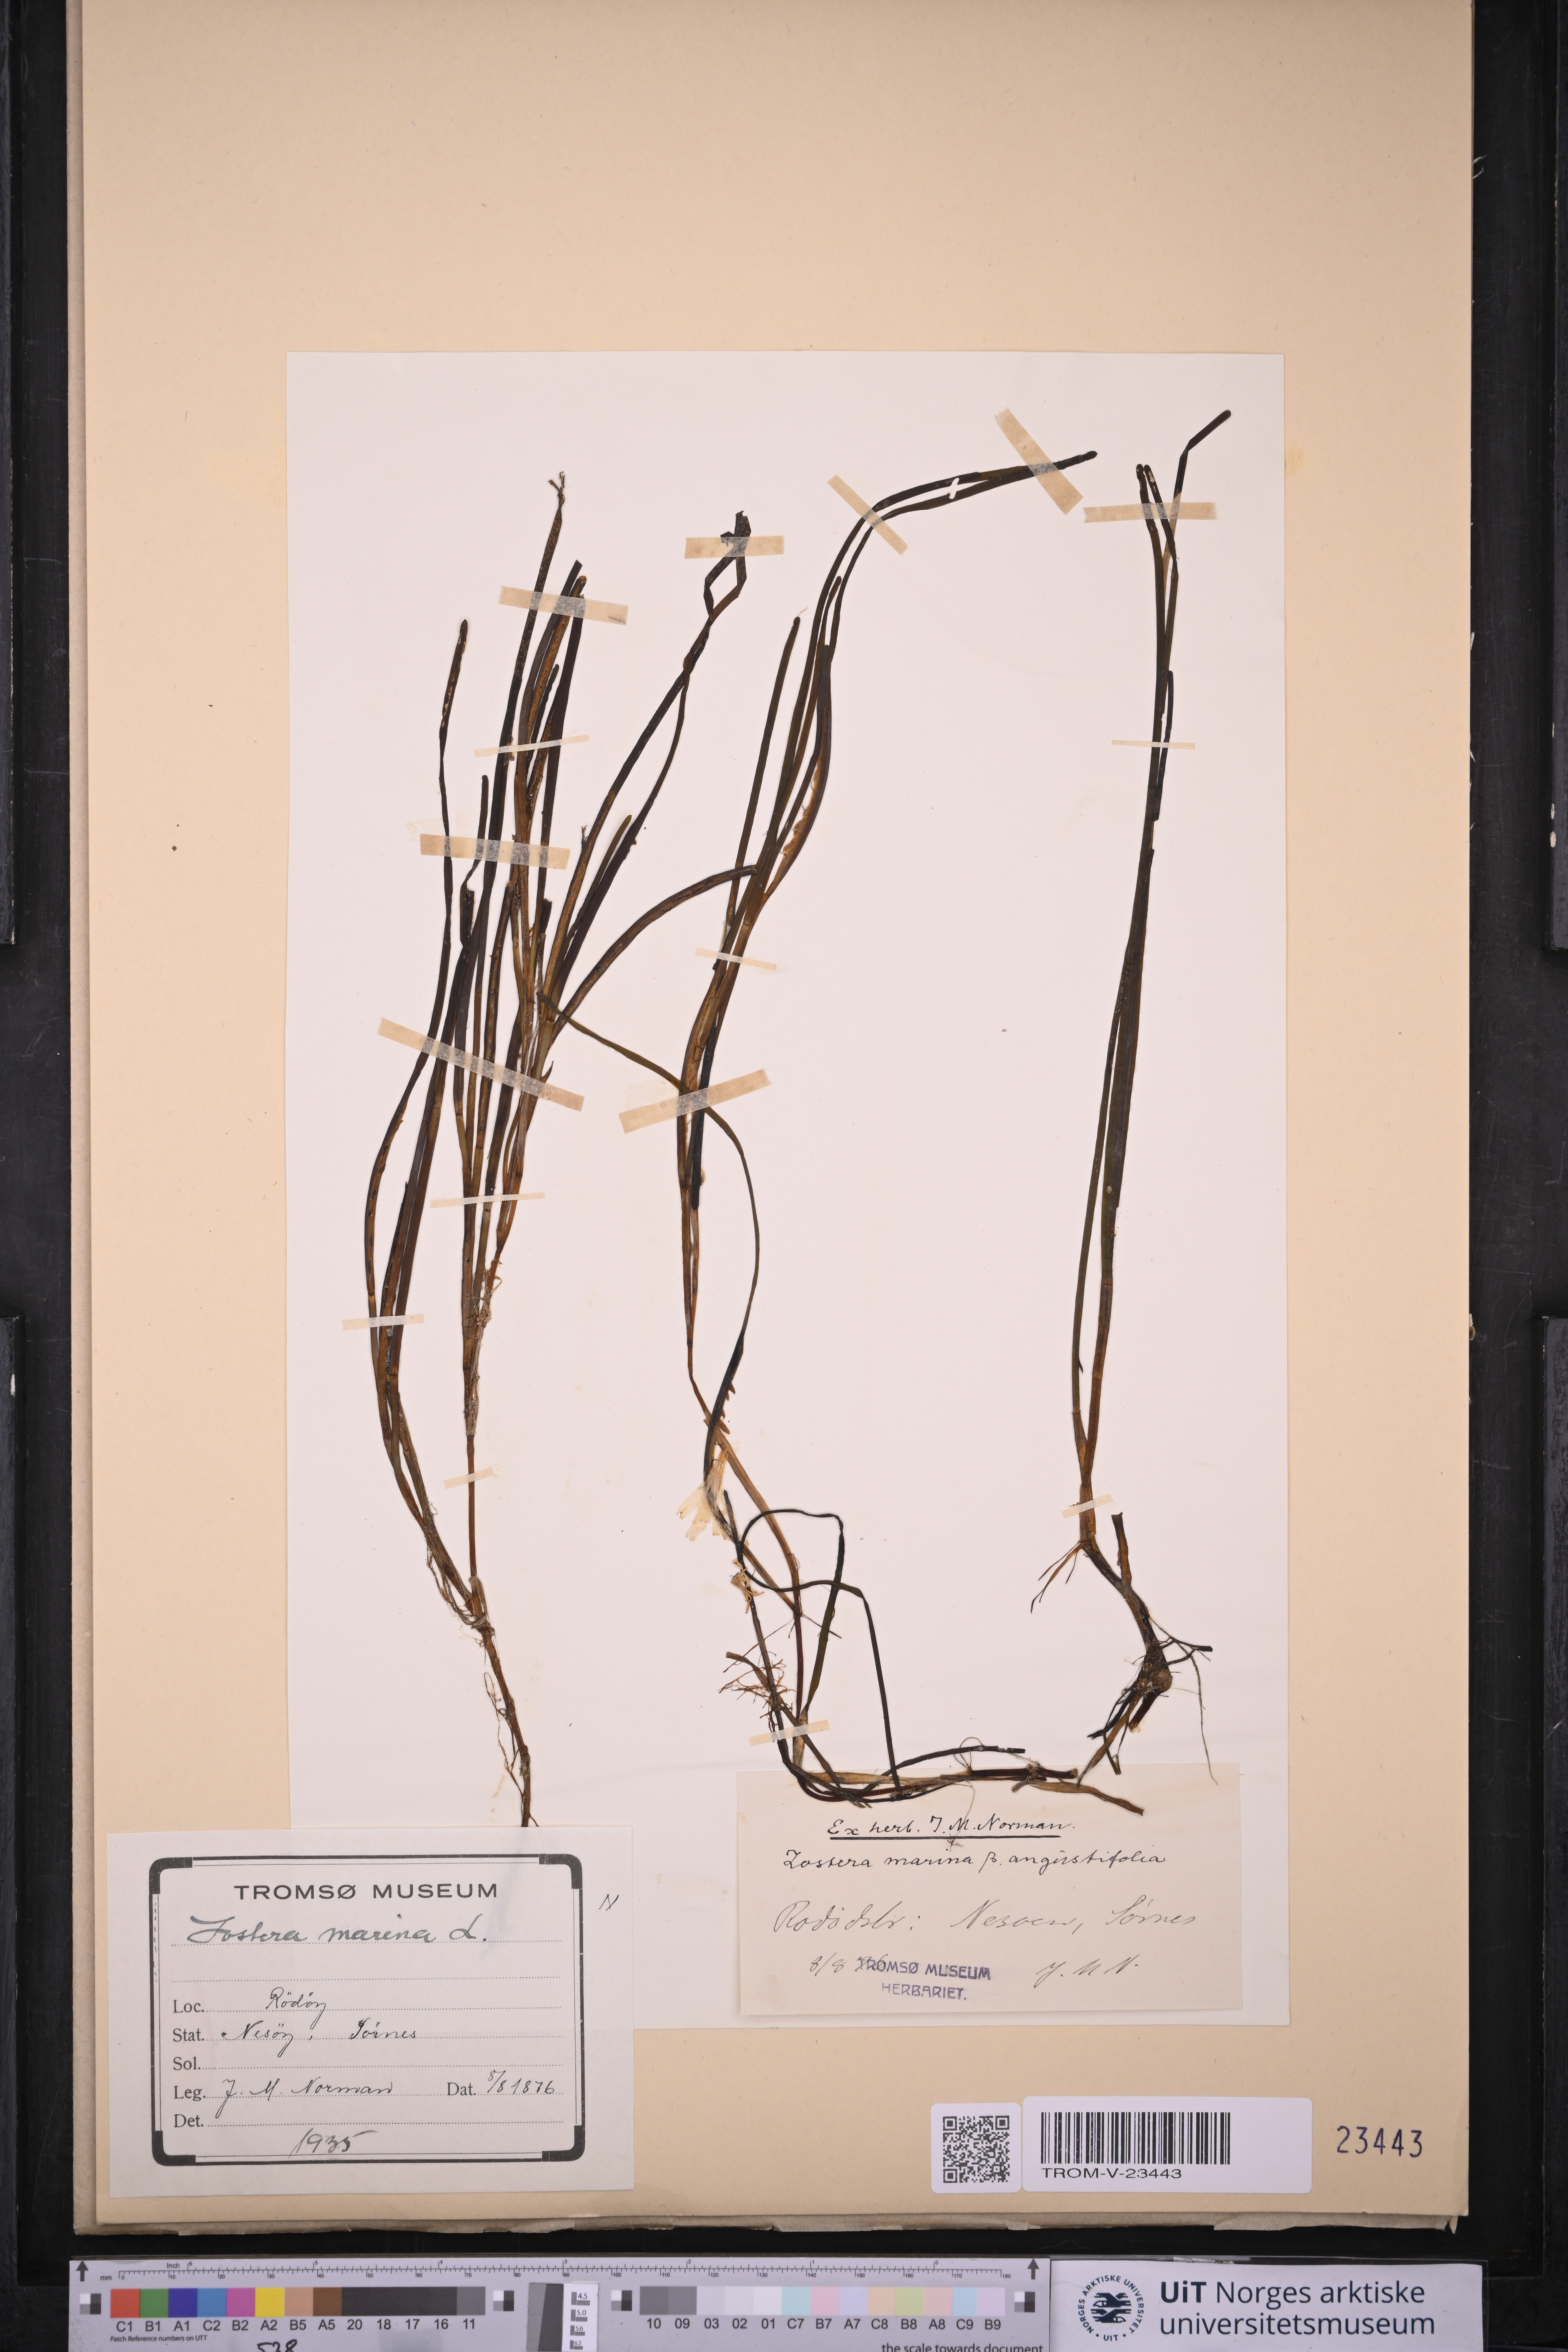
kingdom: Plantae
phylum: Tracheophyta
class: Liliopsida
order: Alismatales
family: Zosteraceae
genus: Zostera
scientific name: Zostera marina
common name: Eelgrass
